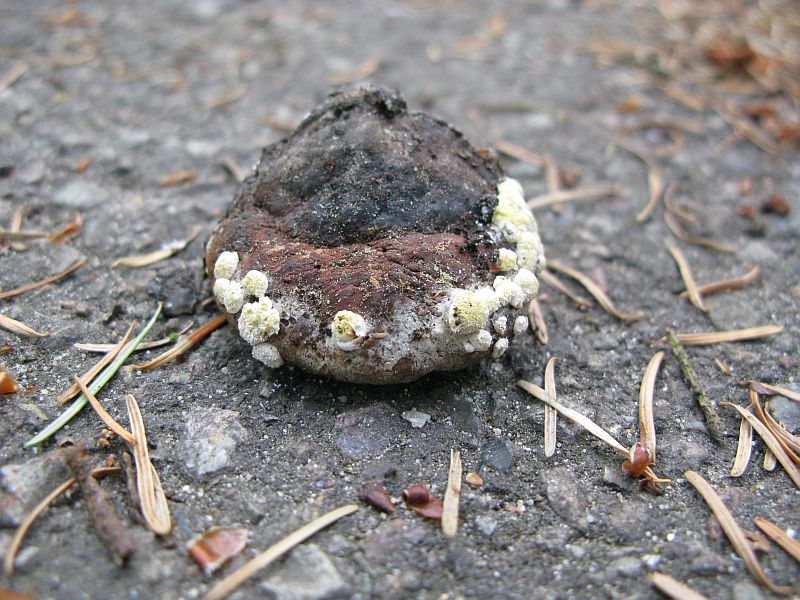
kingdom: Fungi
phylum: Ascomycota
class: Sordariomycetes
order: Hypocreales
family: Hypocreaceae
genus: Trichoderma
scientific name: Trichoderma pulvinatum
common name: snyltende kødkerne
